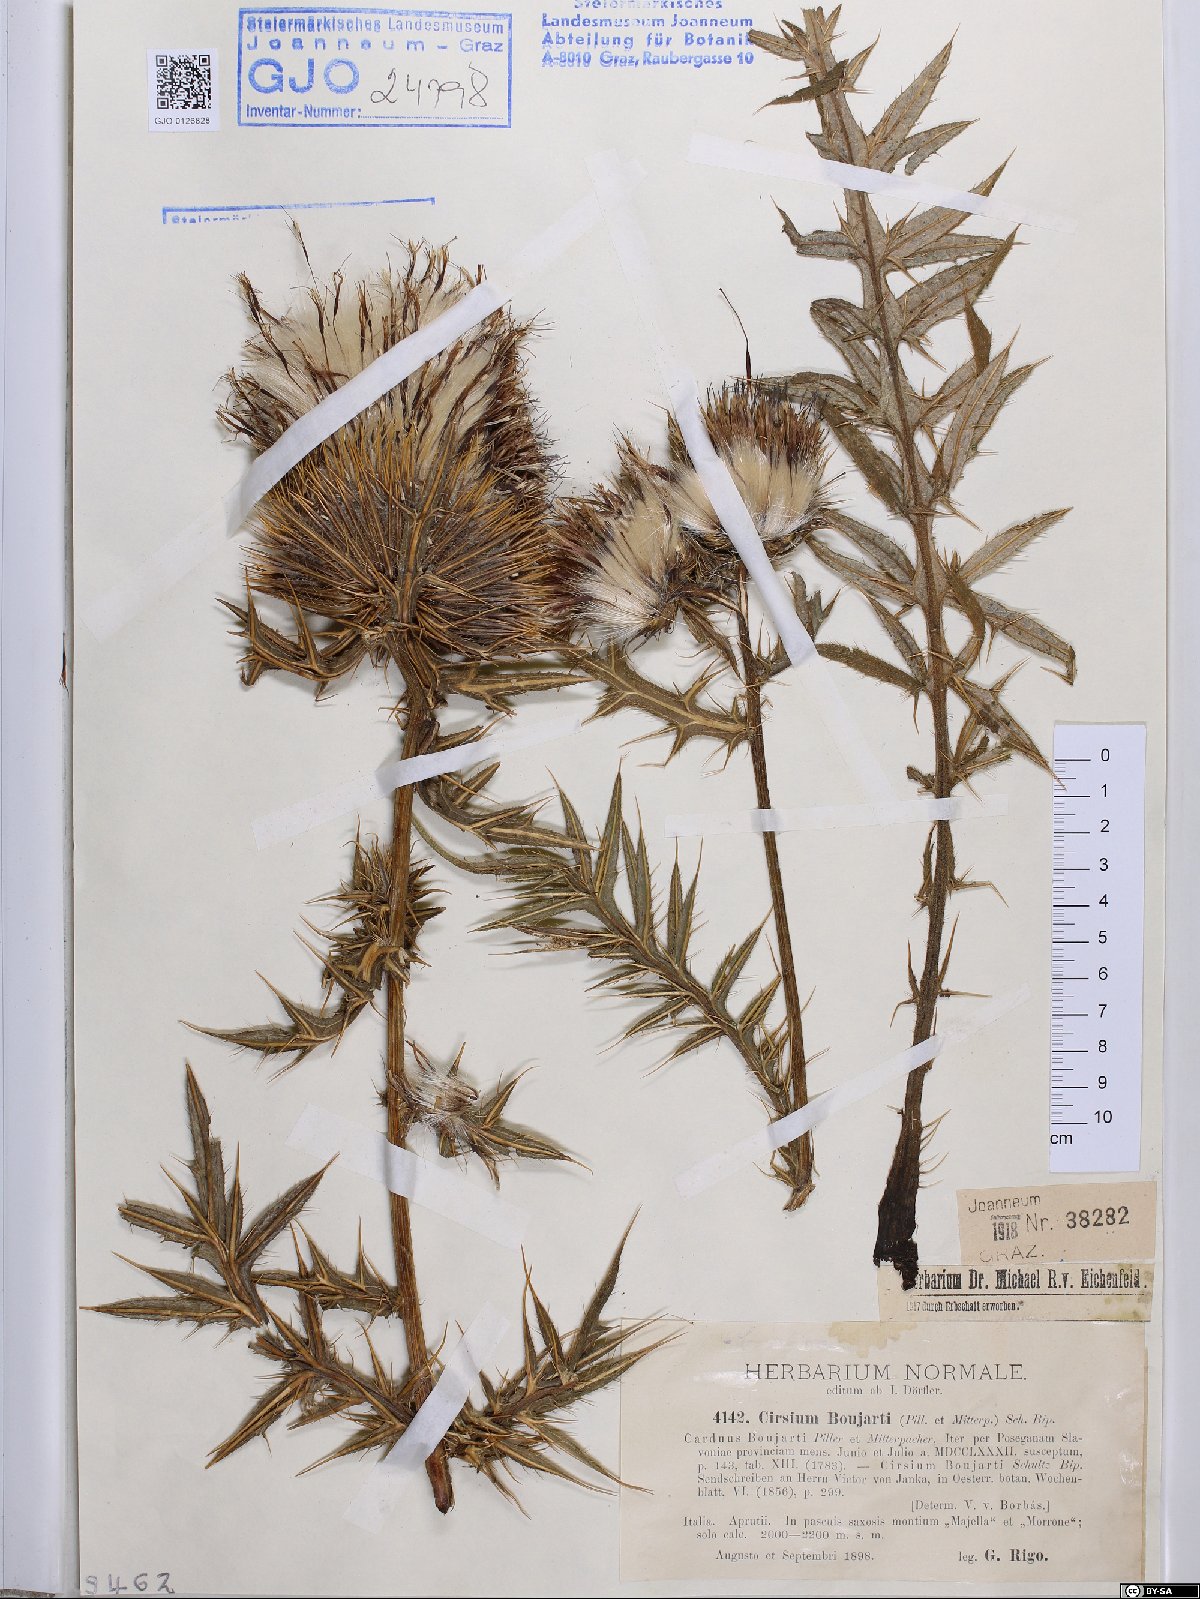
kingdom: Plantae
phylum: Tracheophyta
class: Magnoliopsida
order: Asterales
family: Asteraceae
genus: Lophiolepis
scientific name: Lophiolepis boujartii
